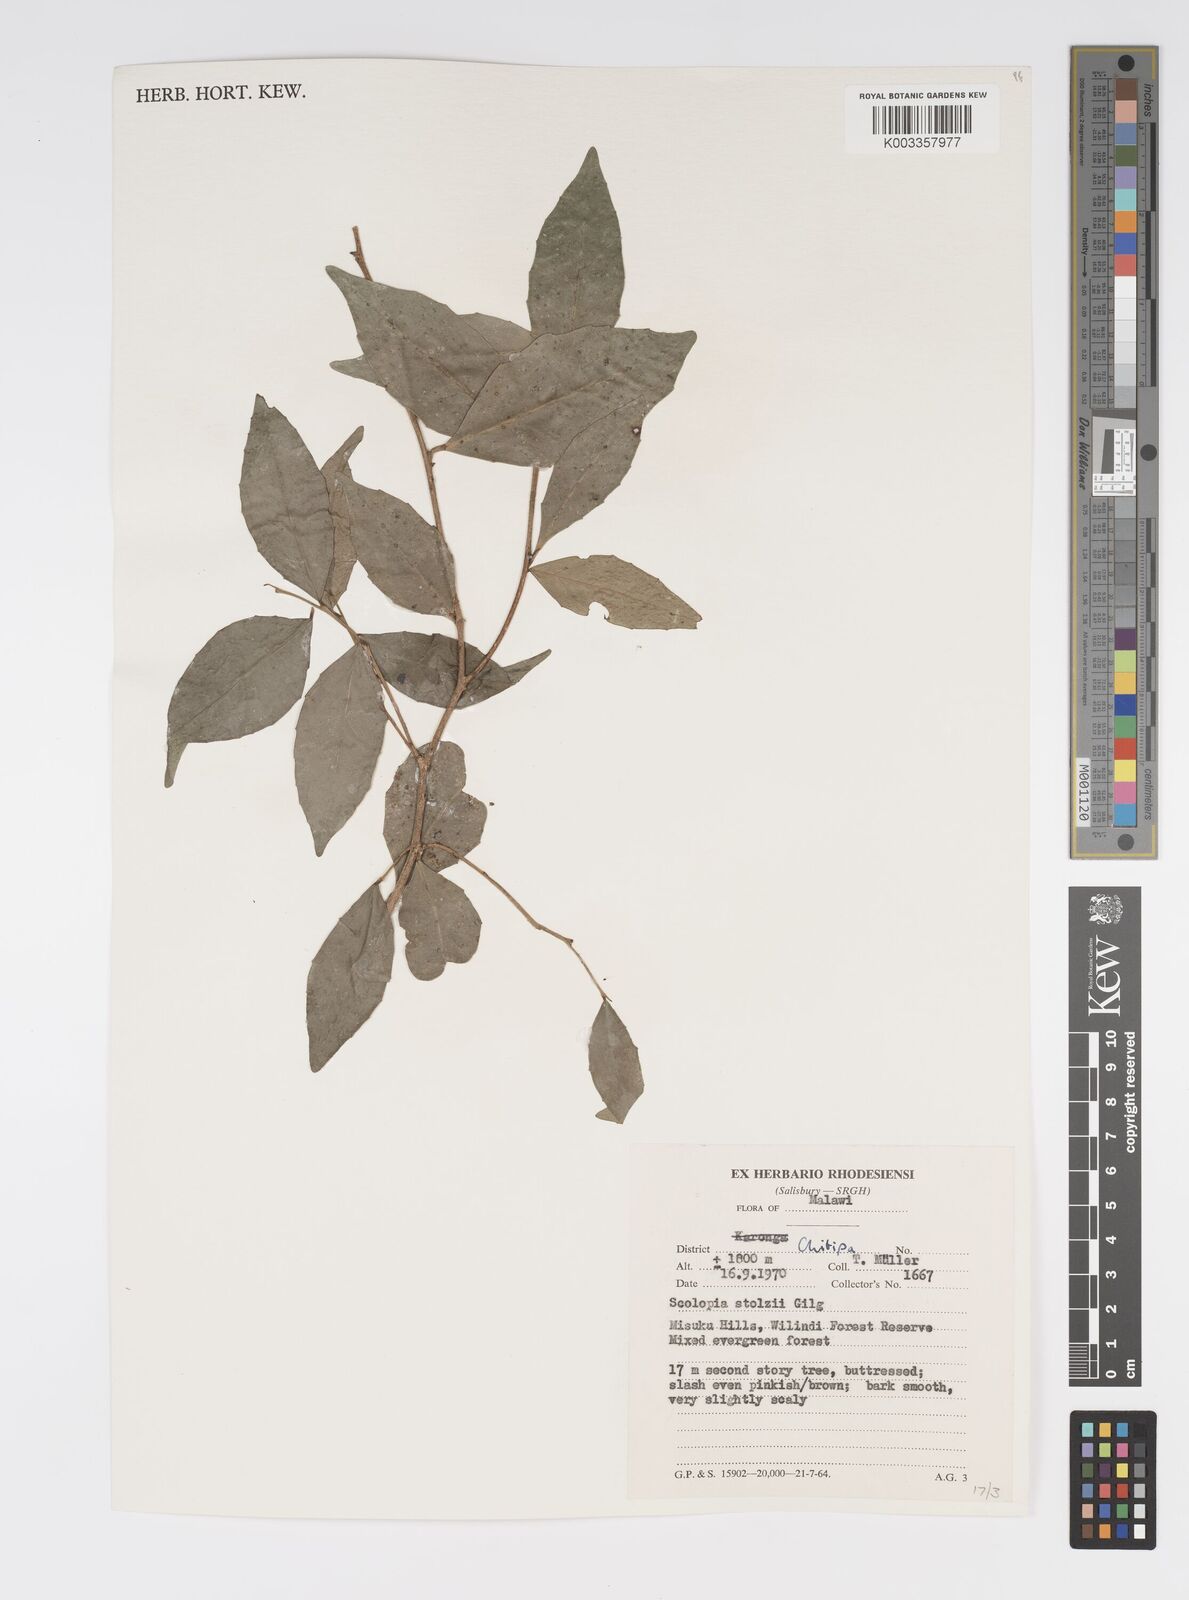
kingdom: Plantae
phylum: Tracheophyta
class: Magnoliopsida
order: Malpighiales
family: Salicaceae
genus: Scolopia
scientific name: Scolopia stolzii
